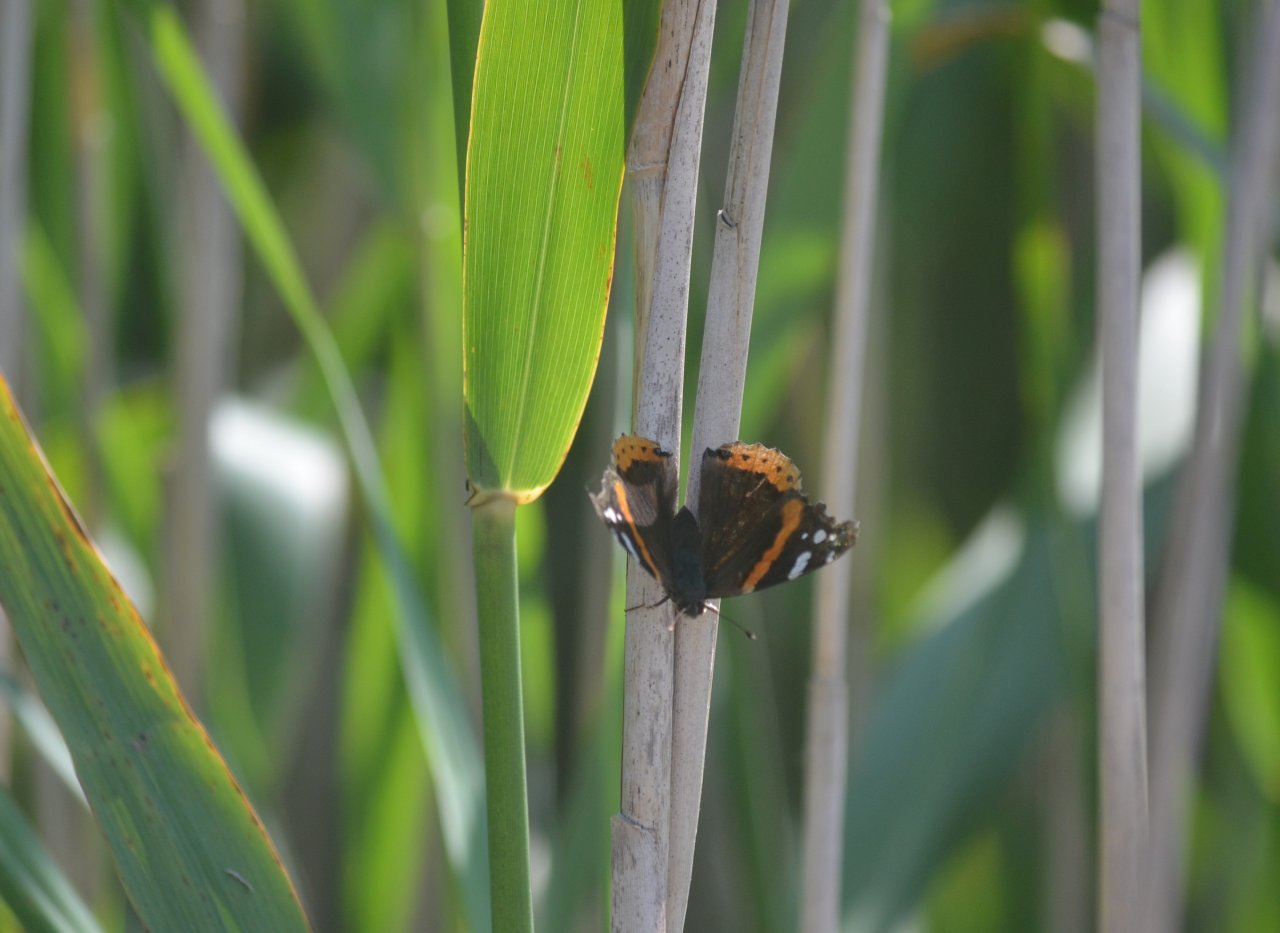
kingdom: Animalia
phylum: Arthropoda
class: Insecta
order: Lepidoptera
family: Nymphalidae
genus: Vanessa
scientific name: Vanessa atalanta
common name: Red Admiral
